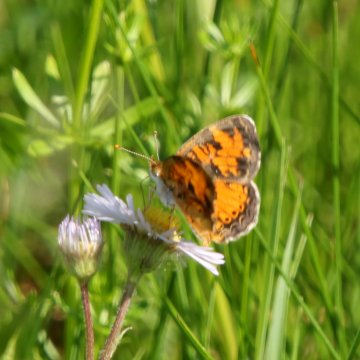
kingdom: Animalia
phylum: Arthropoda
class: Insecta
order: Lepidoptera
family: Nymphalidae
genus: Phyciodes
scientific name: Phyciodes tharos
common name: Northern Crescent
